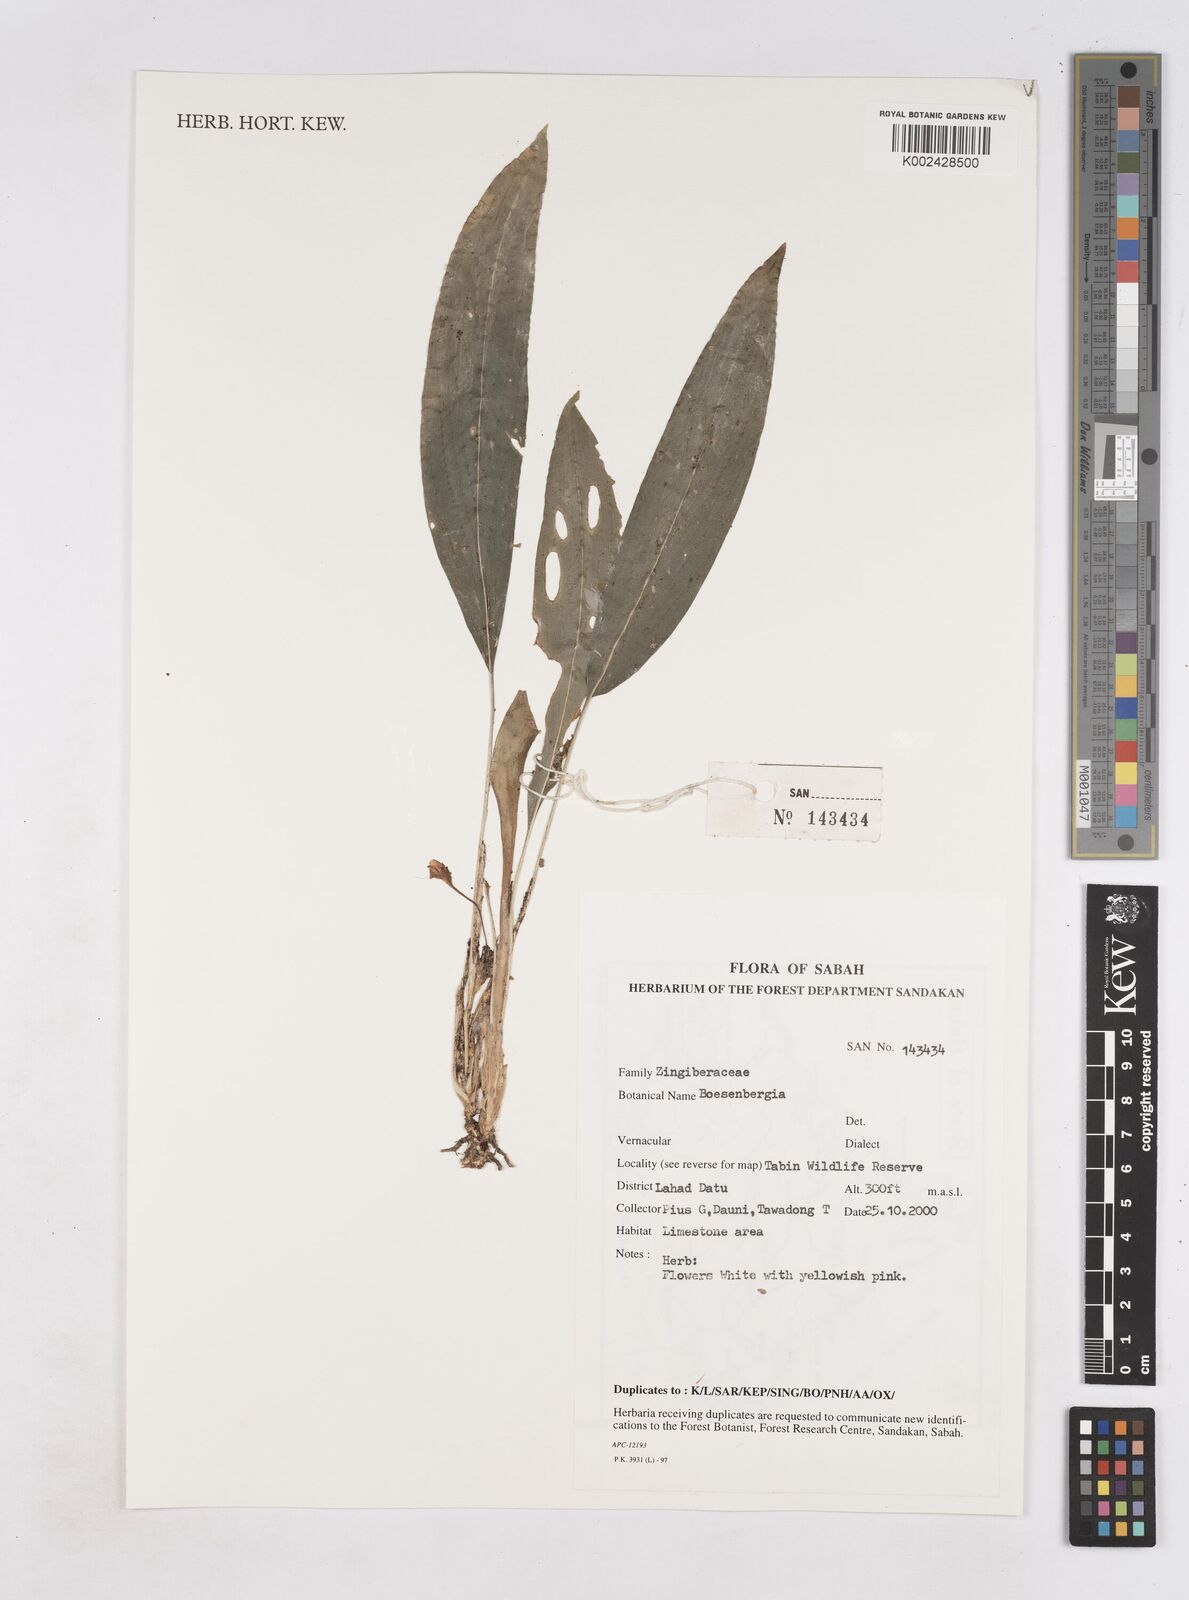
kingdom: Plantae
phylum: Tracheophyta
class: Liliopsida
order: Zingiberales
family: Zingiberaceae
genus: Boesenbergia
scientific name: Boesenbergia
